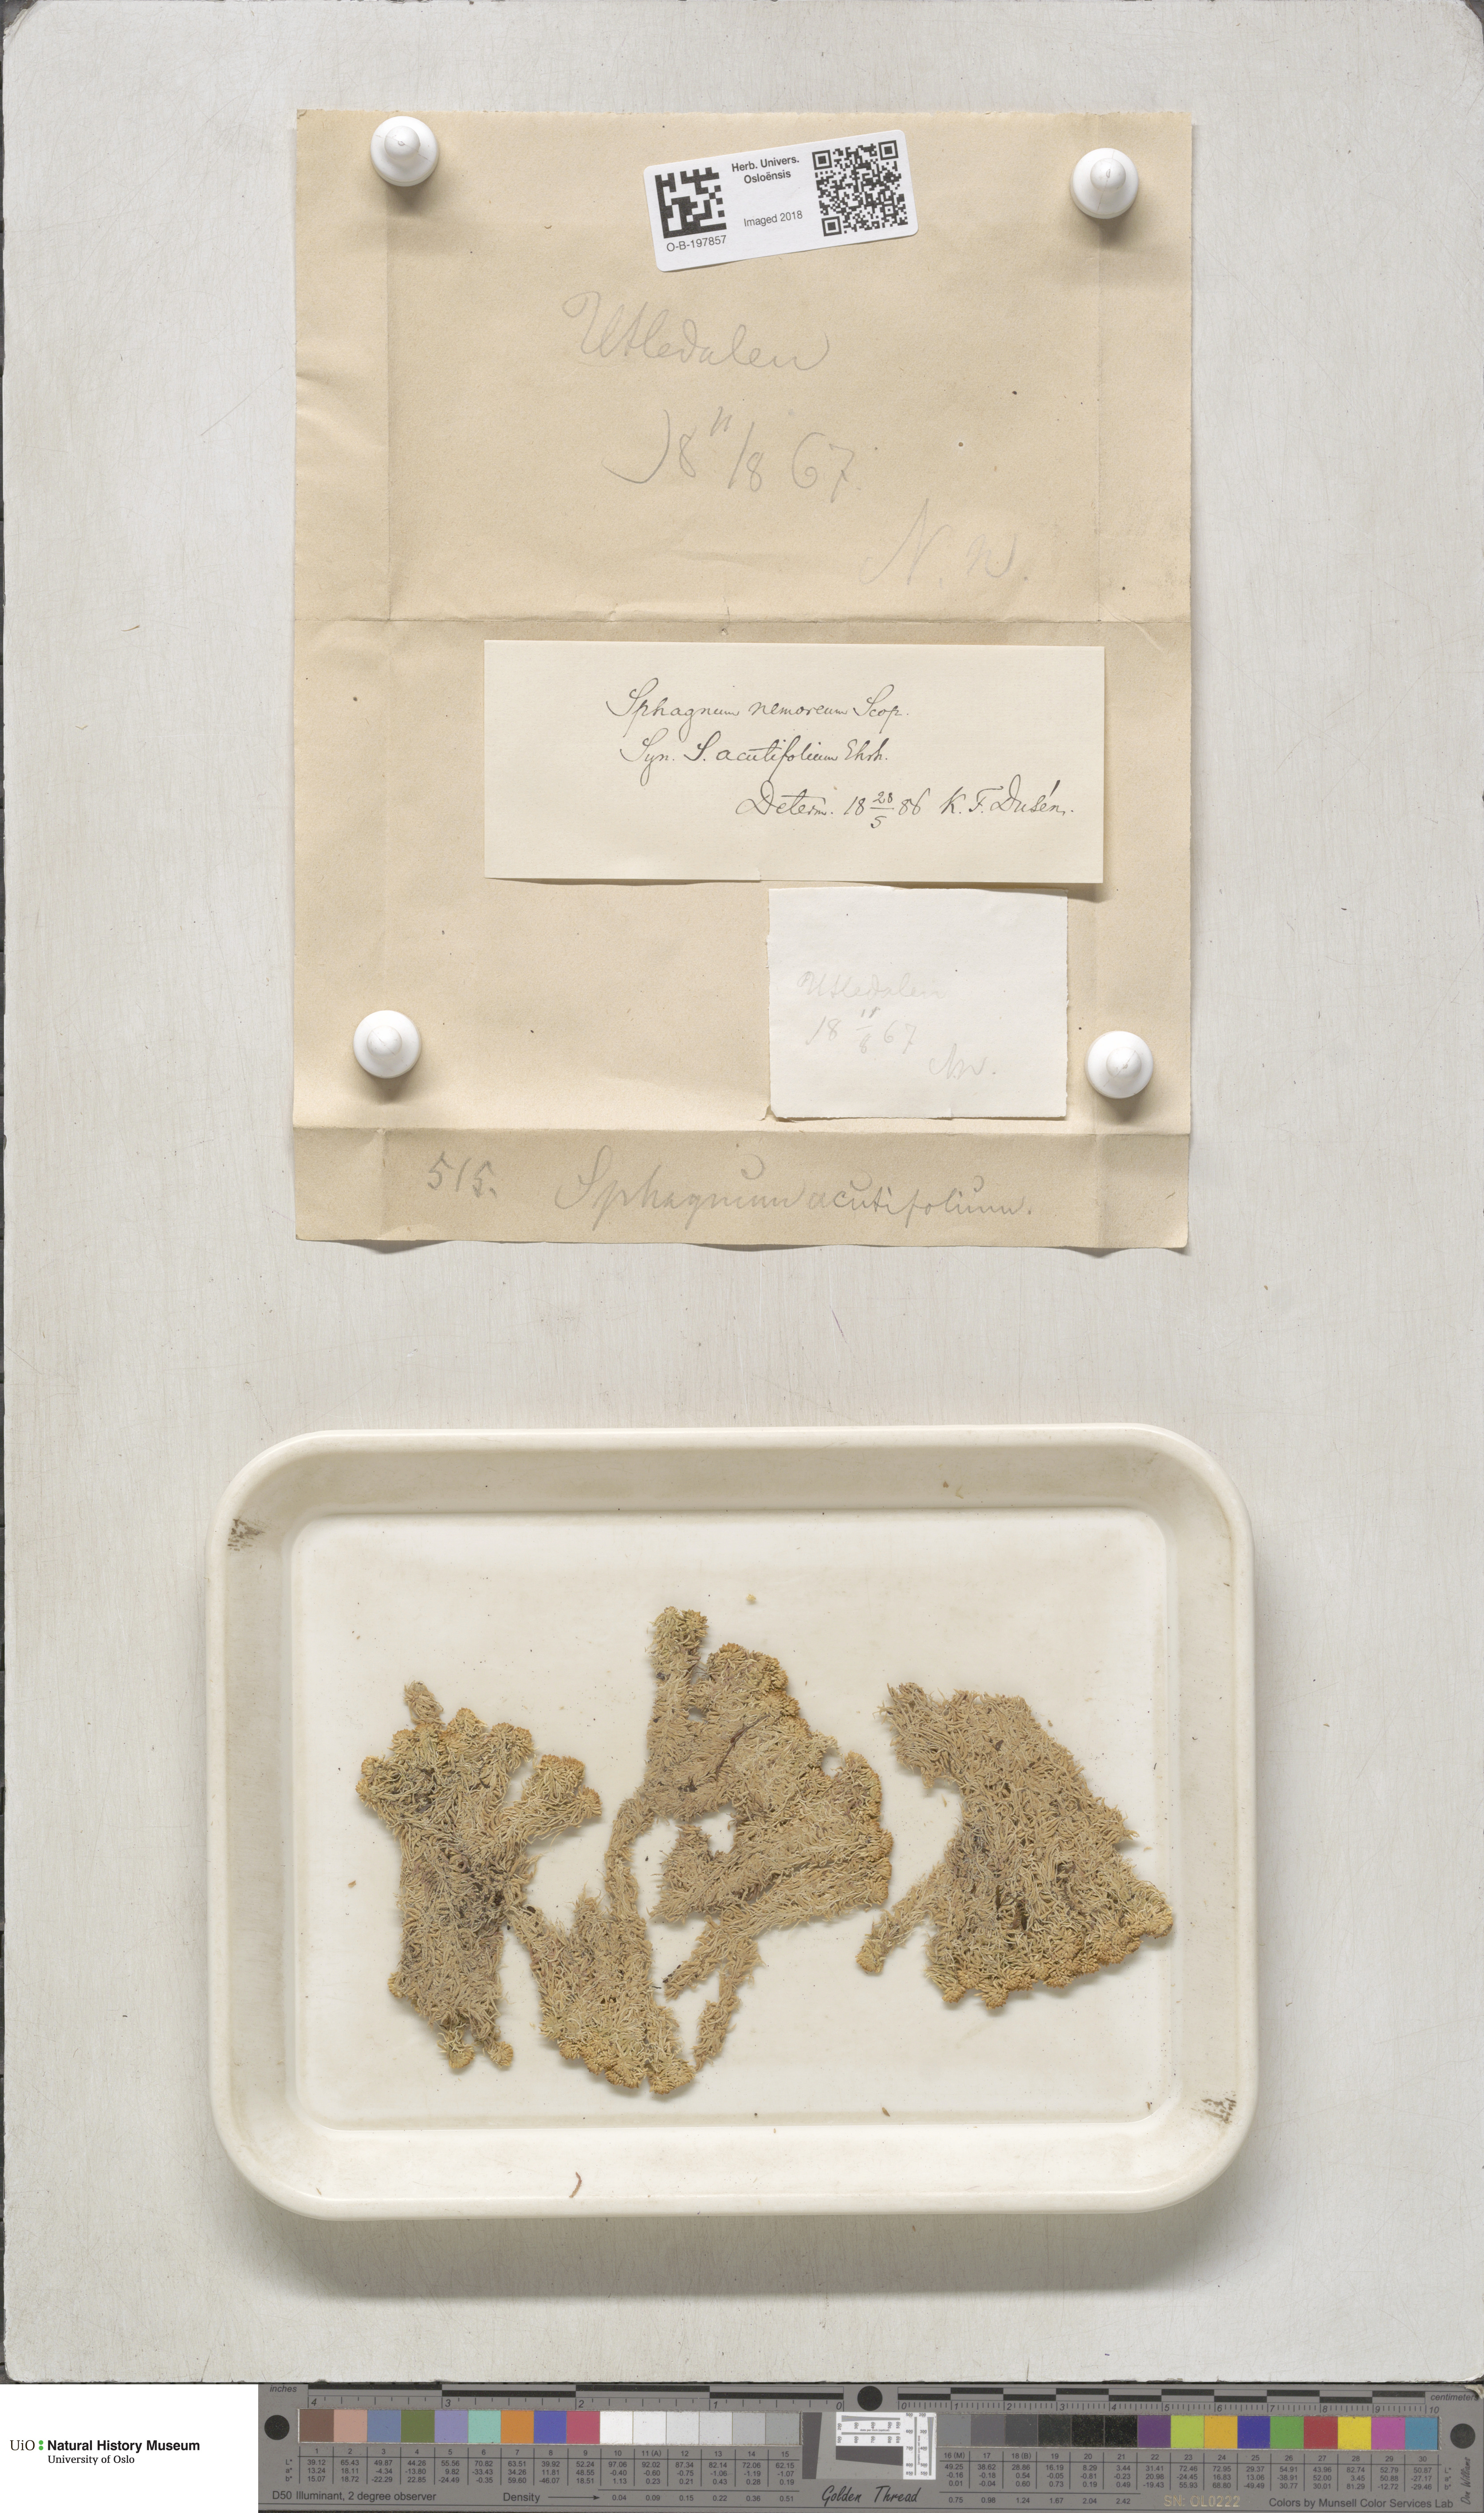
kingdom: Plantae
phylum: Bryophyta
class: Sphagnopsida
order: Sphagnales
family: Sphagnaceae
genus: Sphagnum
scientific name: Sphagnum capillifolium
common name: Small red peat moss
